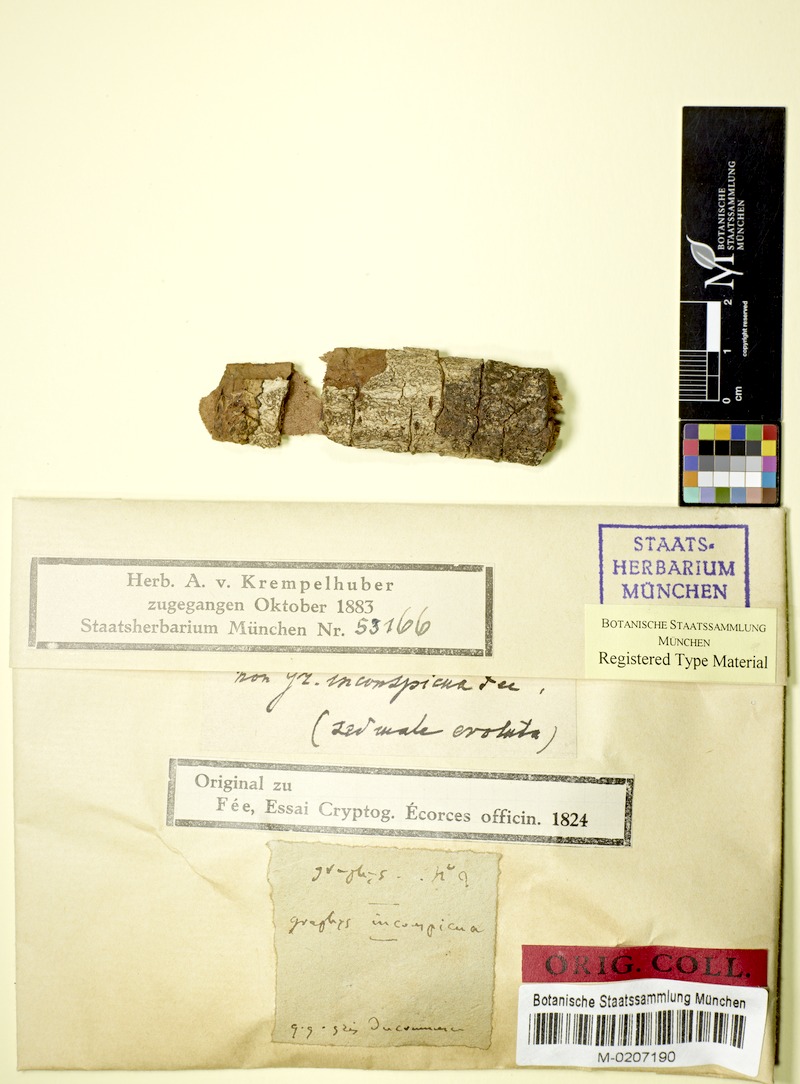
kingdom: Fungi
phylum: Ascomycota
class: Lecanoromycetes
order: Ostropales
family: Graphidaceae
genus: Phaeographis
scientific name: Phaeographis
